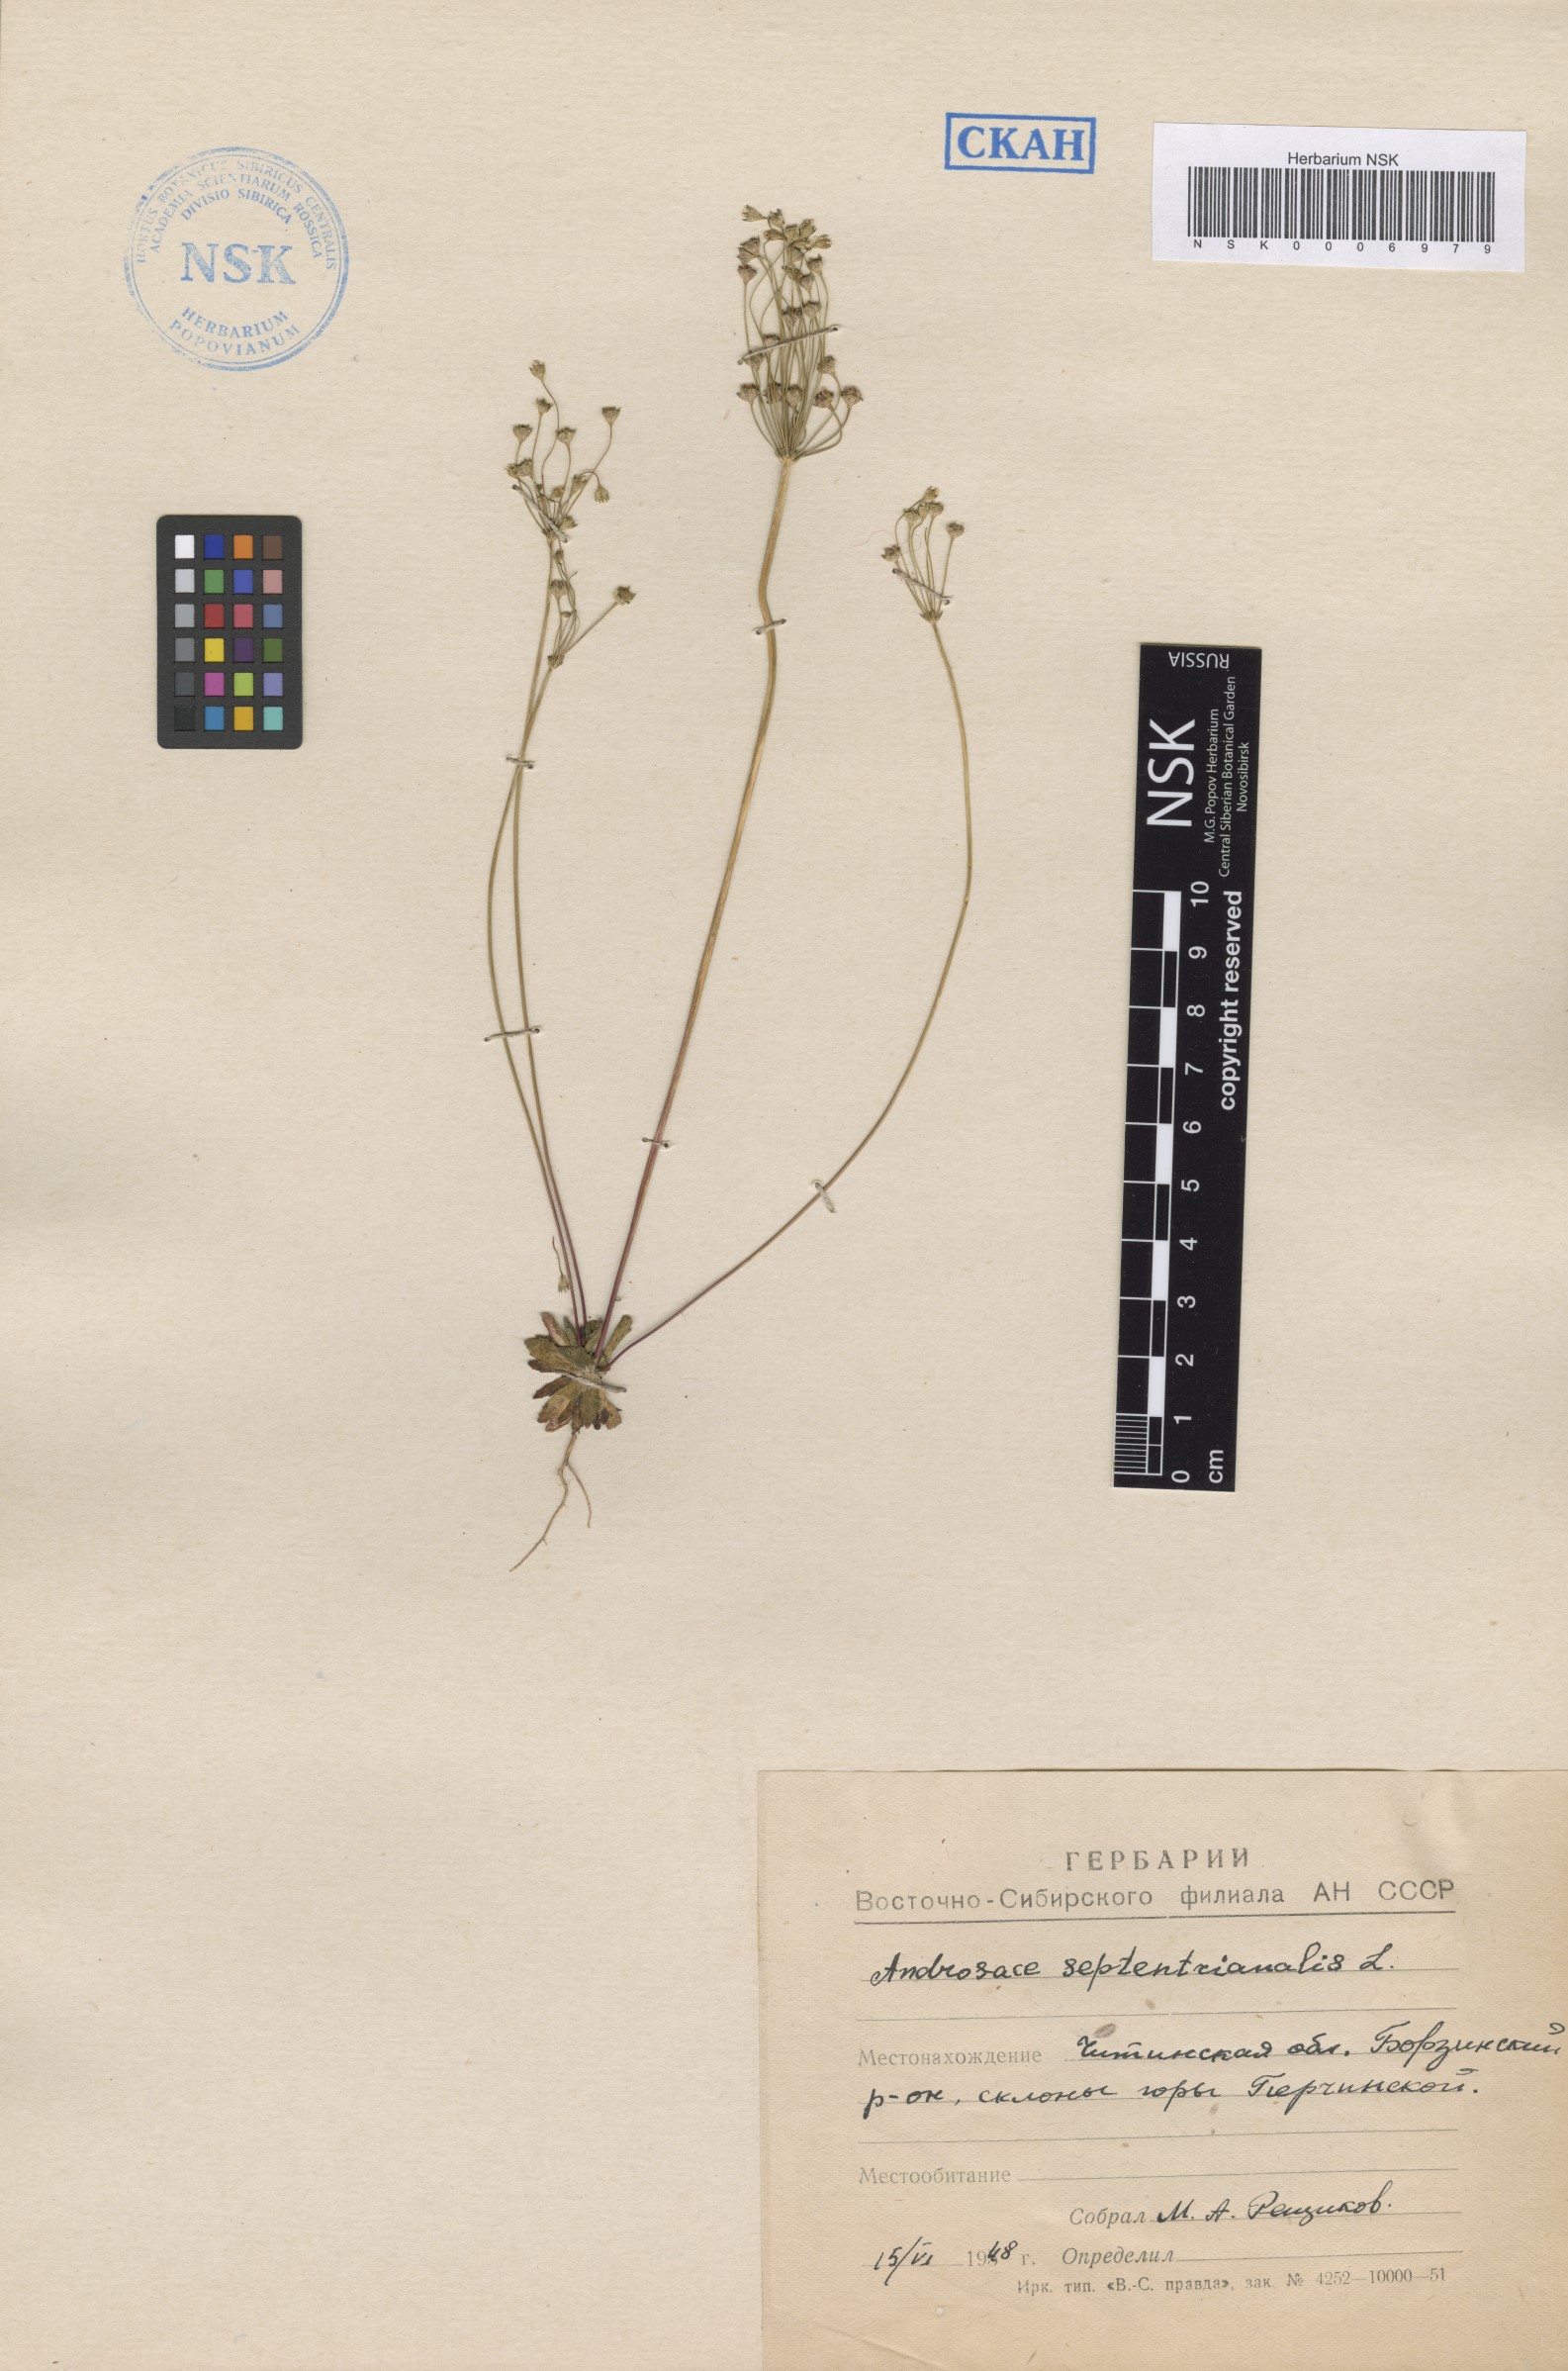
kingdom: Plantae
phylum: Tracheophyta
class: Magnoliopsida
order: Ericales
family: Primulaceae
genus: Androsace
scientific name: Androsace septentrionalis
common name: Hairy northern fairy-candelabra
